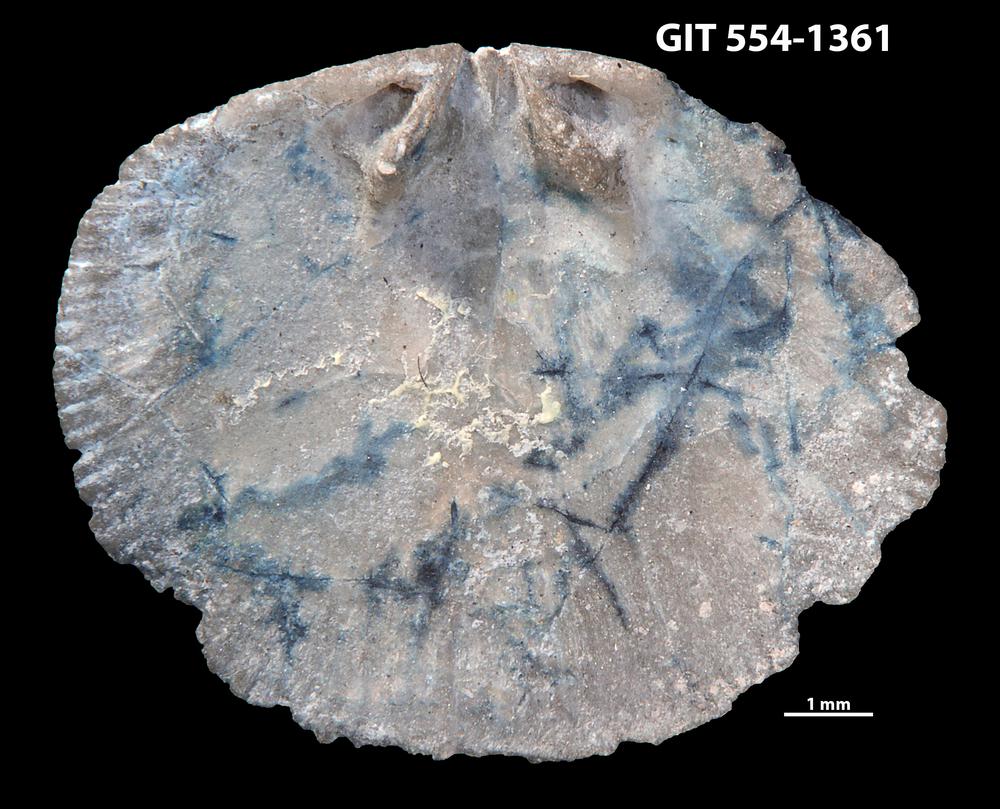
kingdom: Animalia
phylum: Brachiopoda
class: Rhynchonellata
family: Dalmanellidae
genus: Levenea
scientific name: Levenea Orthis canaliculata
